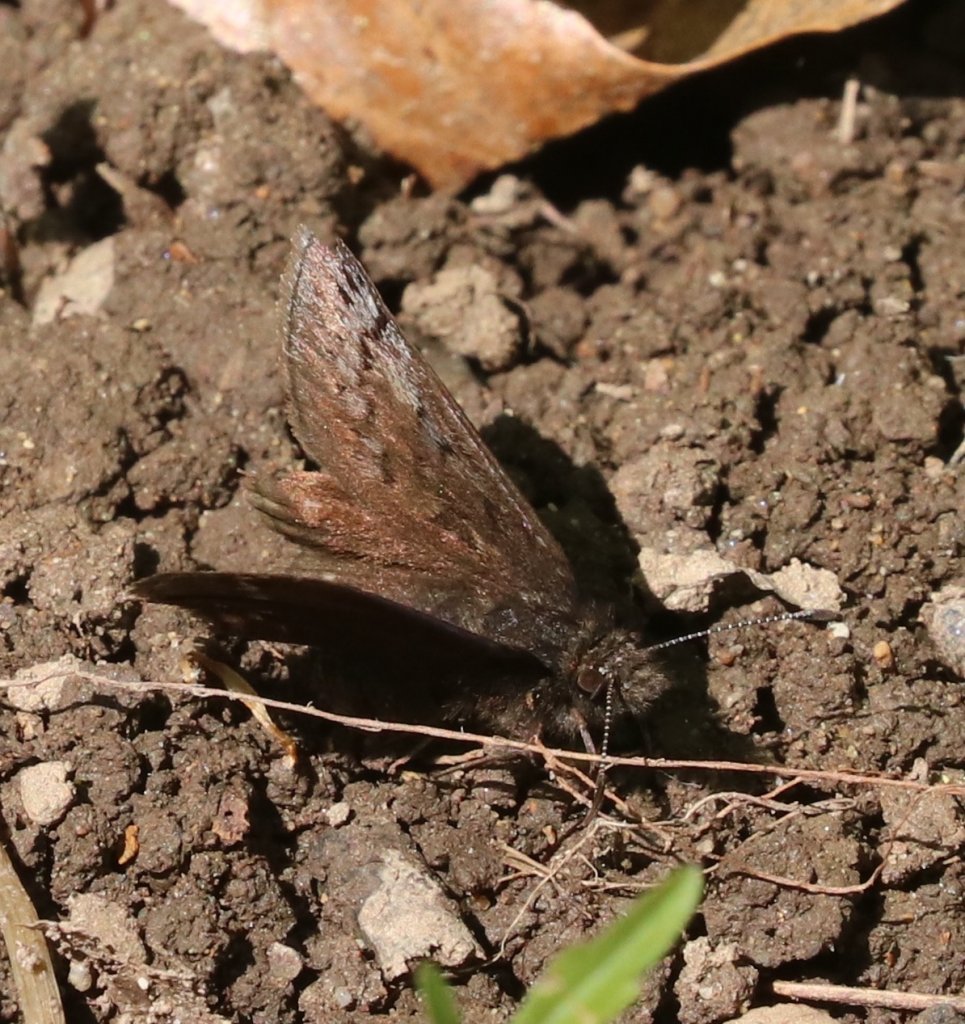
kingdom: Animalia
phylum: Arthropoda
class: Insecta
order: Lepidoptera
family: Hesperiidae
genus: Erynnis
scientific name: Erynnis brizo
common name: Sleepy Duskywing
